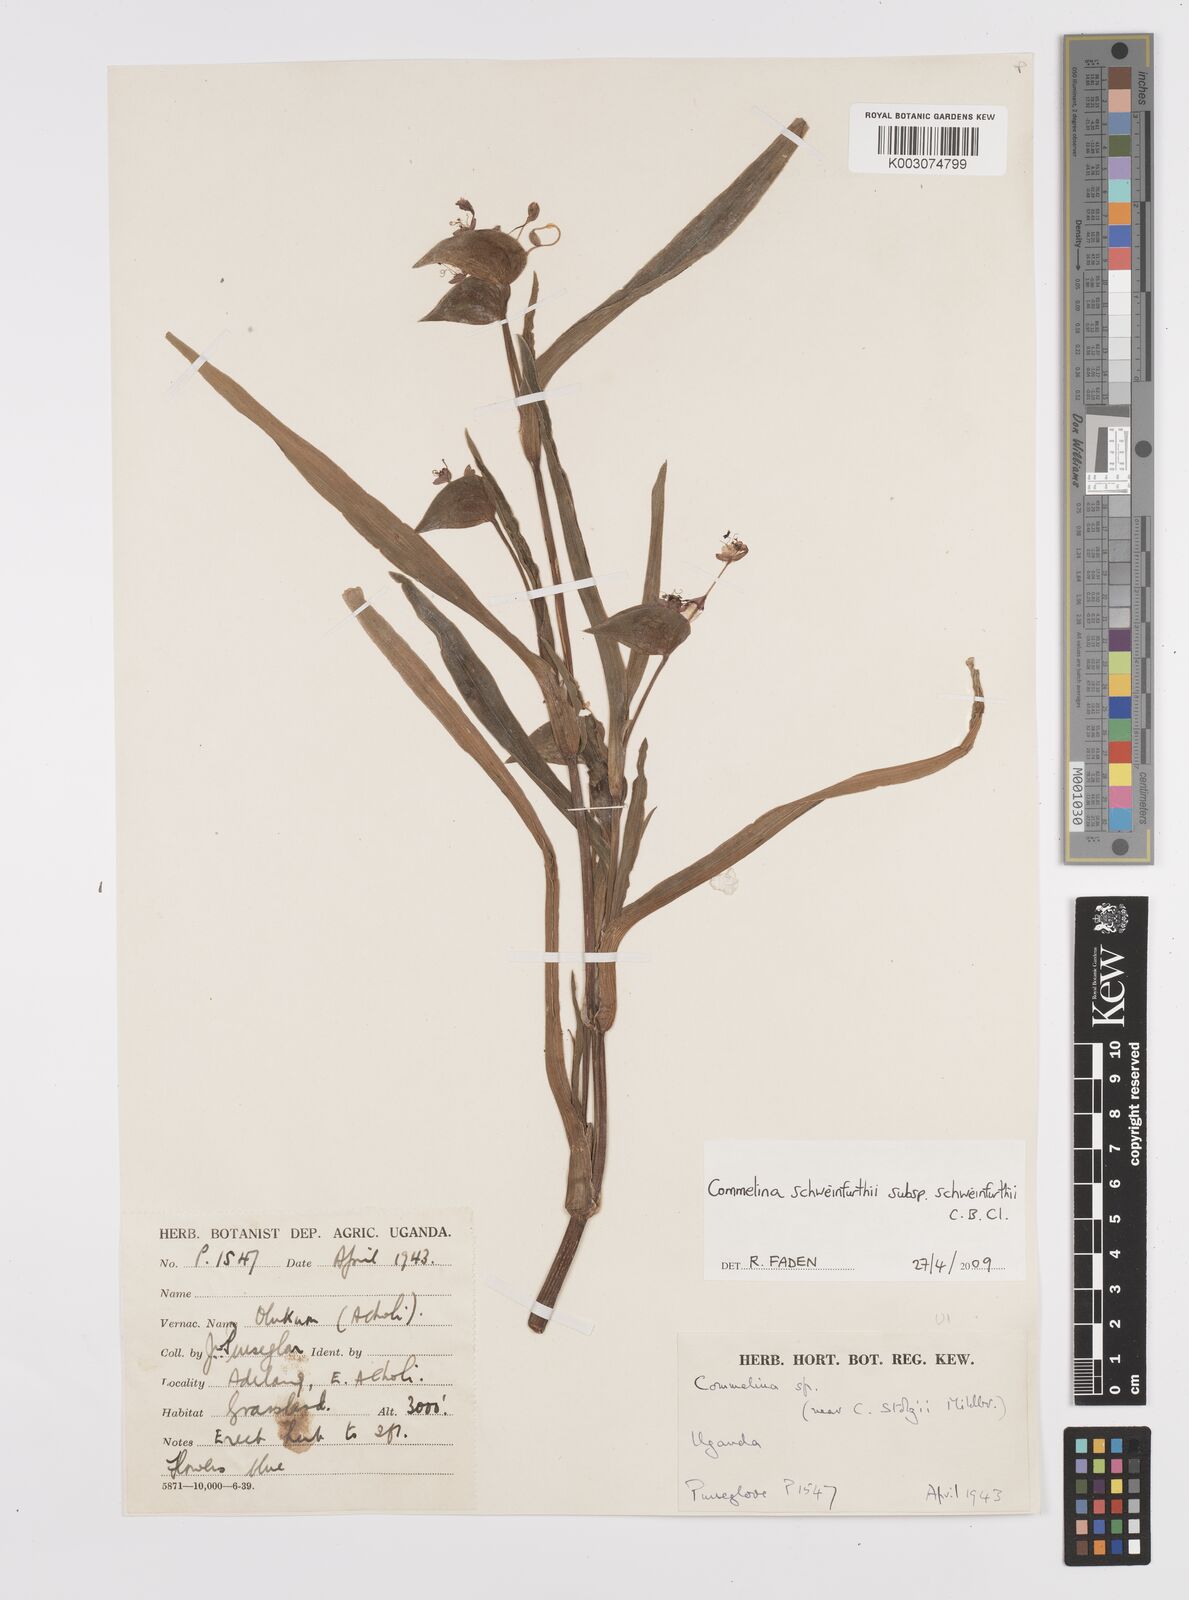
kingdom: Plantae
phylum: Tracheophyta
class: Liliopsida
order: Commelinales
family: Commelinaceae
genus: Commelina
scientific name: Commelina schweinfurthii
